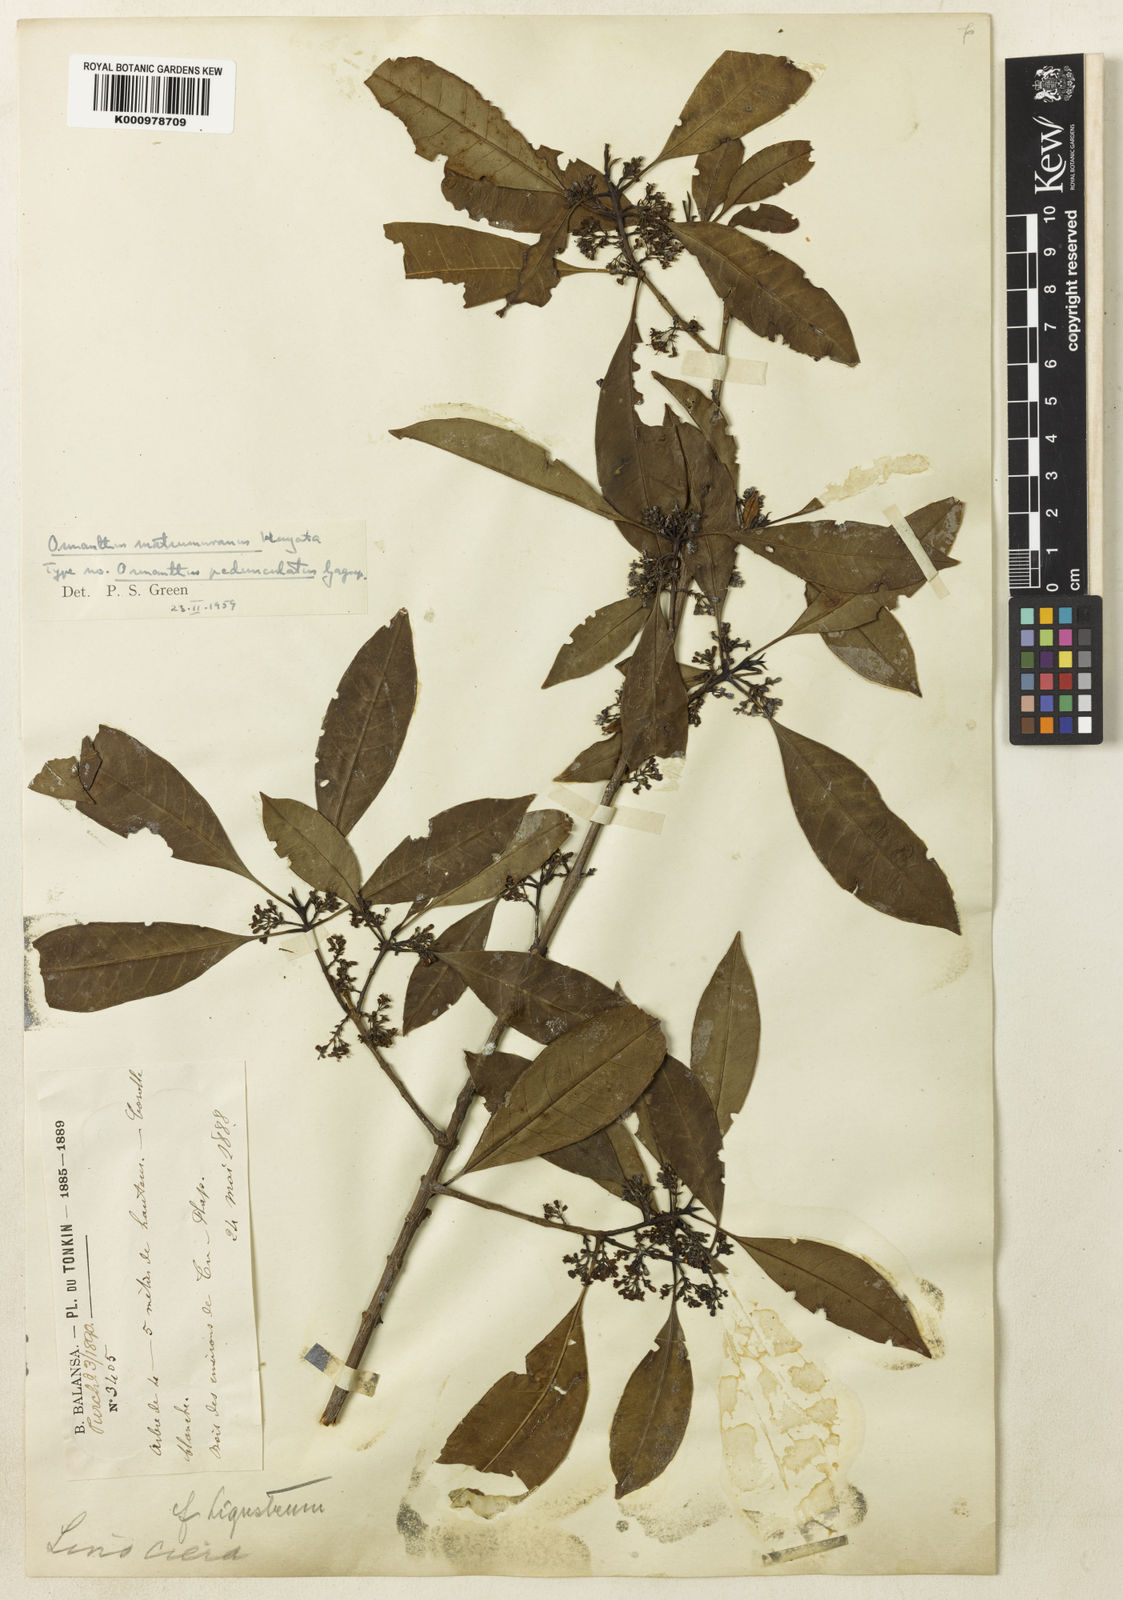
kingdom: Plantae
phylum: Tracheophyta
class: Magnoliopsida
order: Lamiales
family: Oleaceae
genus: Chengiodendron
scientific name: Chengiodendron matsumuranum
